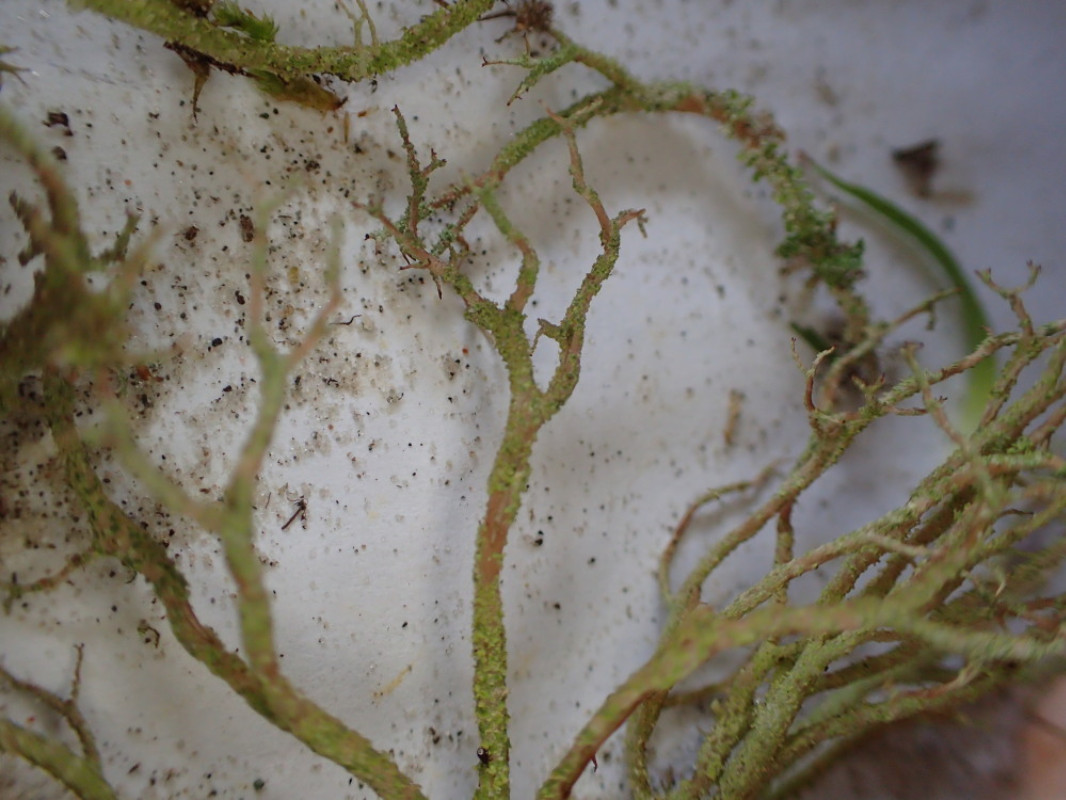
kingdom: Fungi
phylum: Ascomycota
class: Lecanoromycetes
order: Lecanorales
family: Cladoniaceae
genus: Cladonia
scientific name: Cladonia scabriuscula
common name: ru bægerlav
